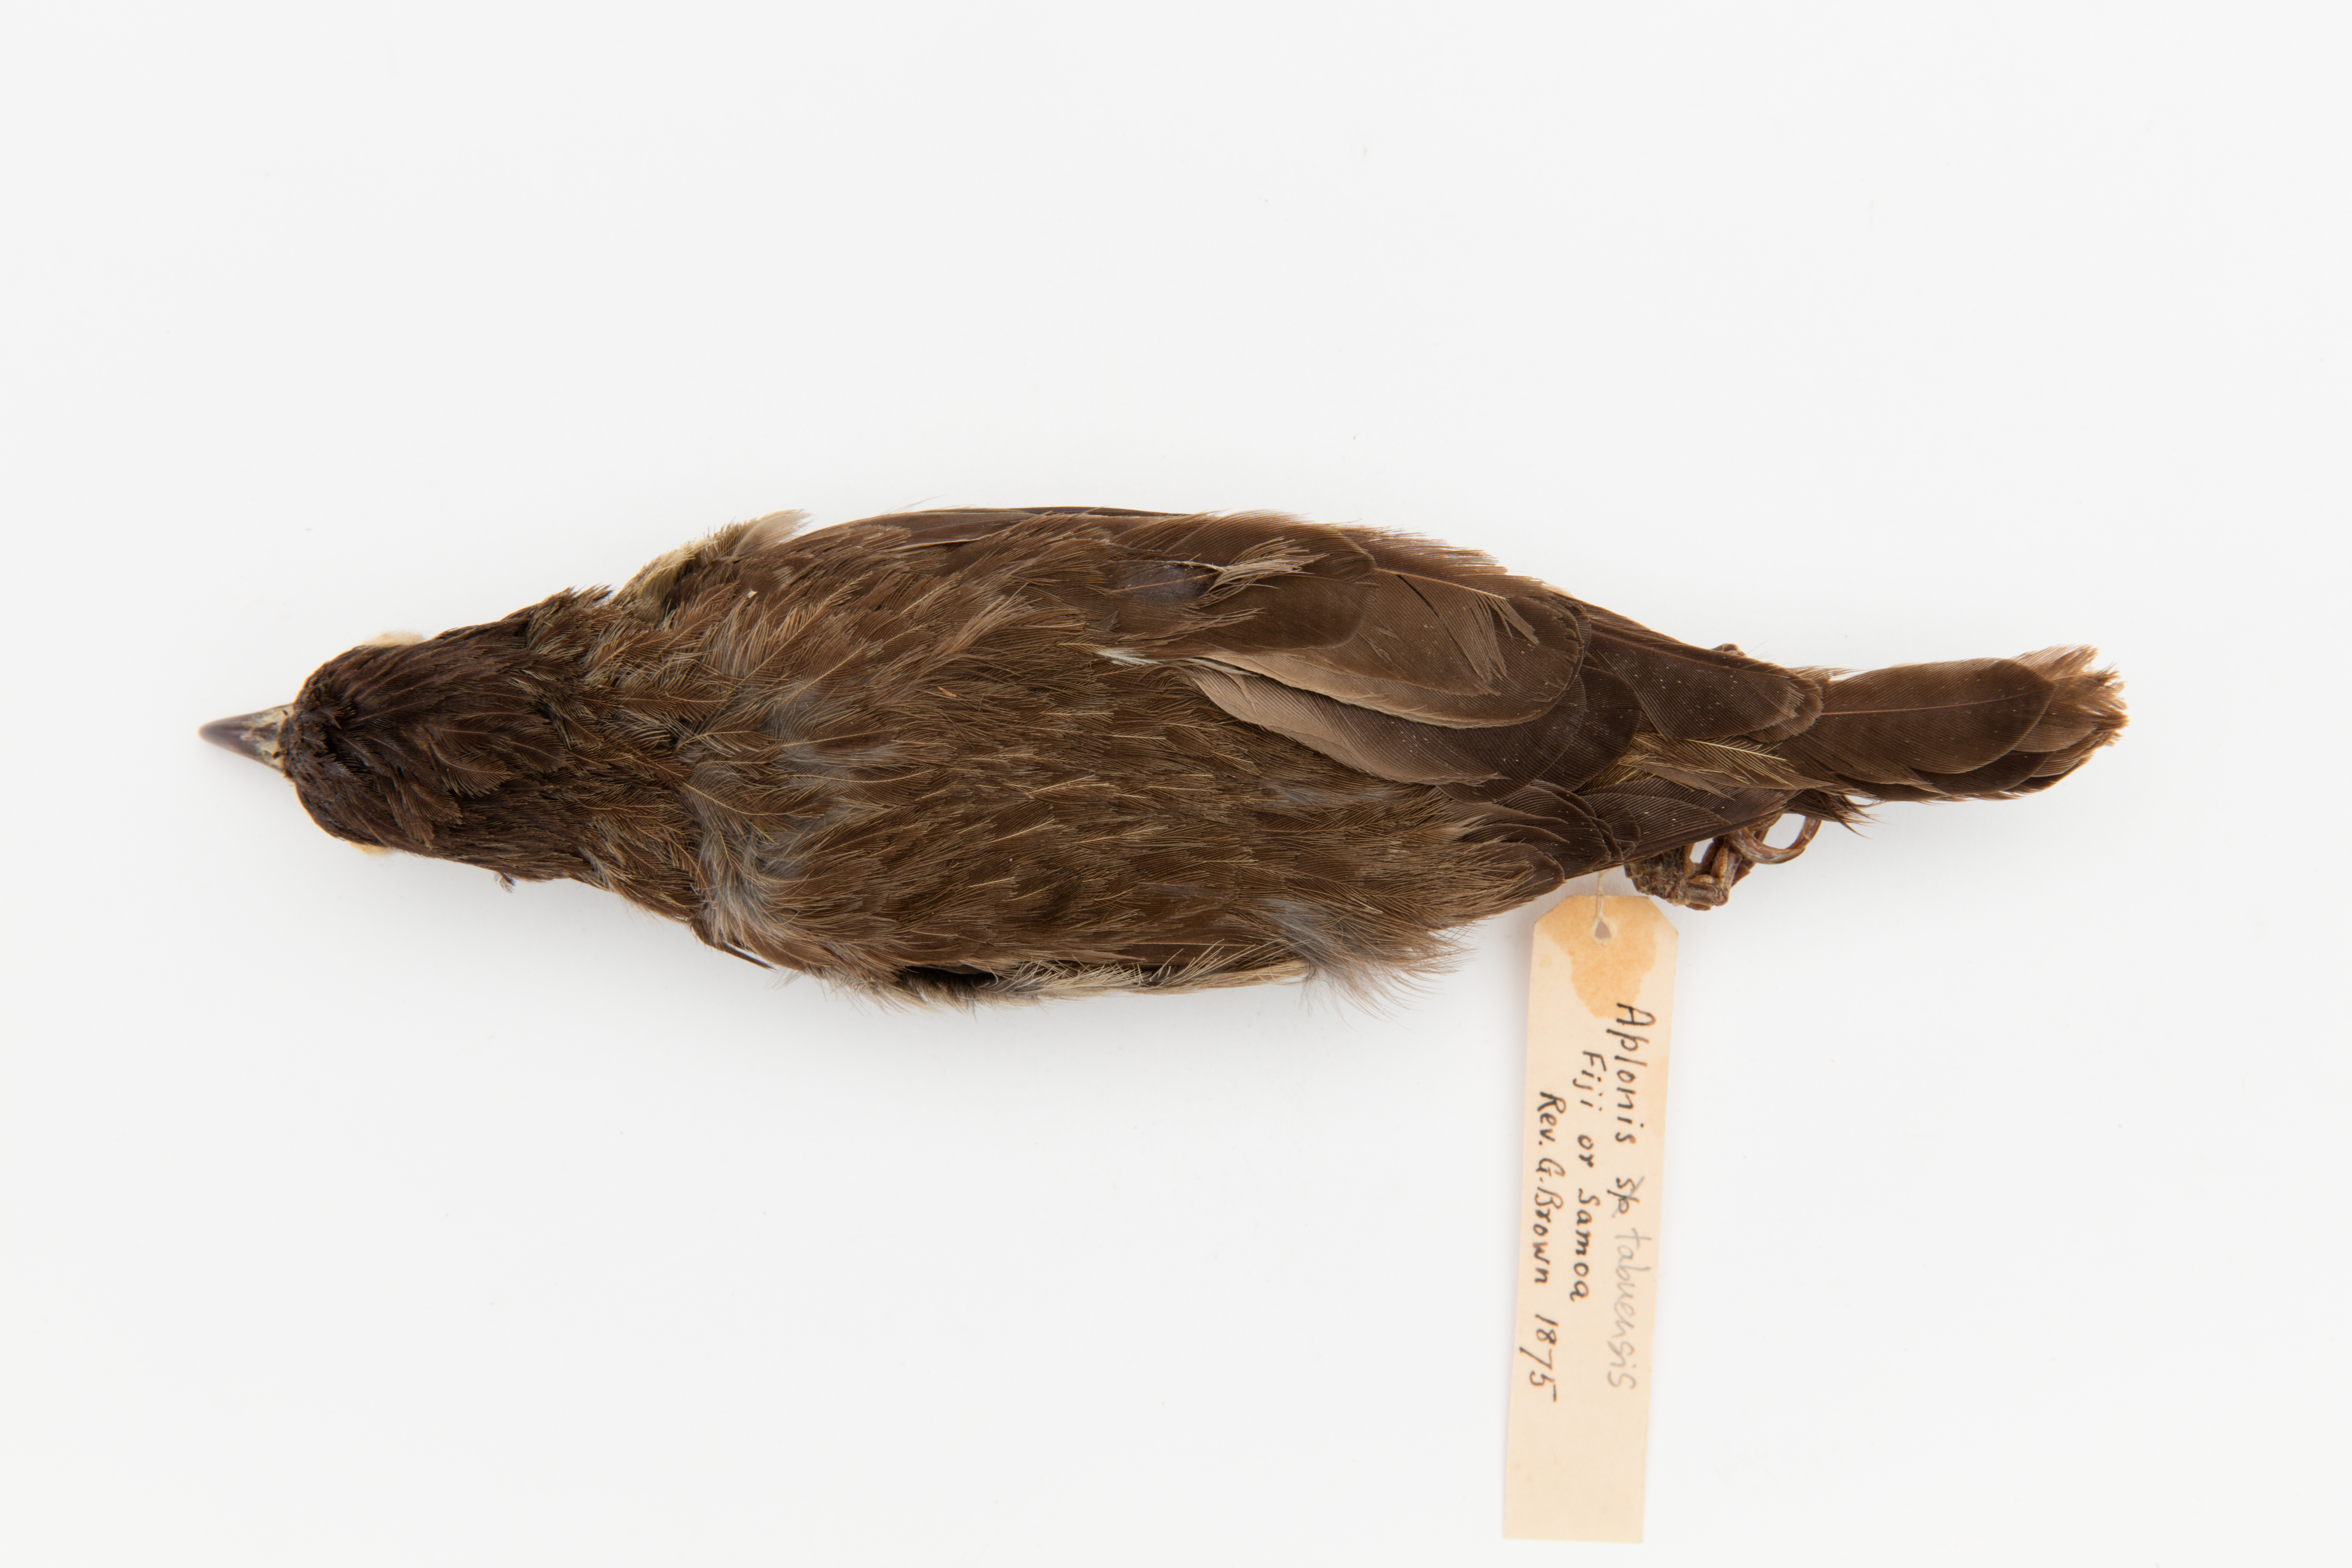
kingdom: Animalia
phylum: Chordata
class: Aves
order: Passeriformes
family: Sturnidae
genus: Aplonis
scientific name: Aplonis tabuensis
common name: Polynesian starling
